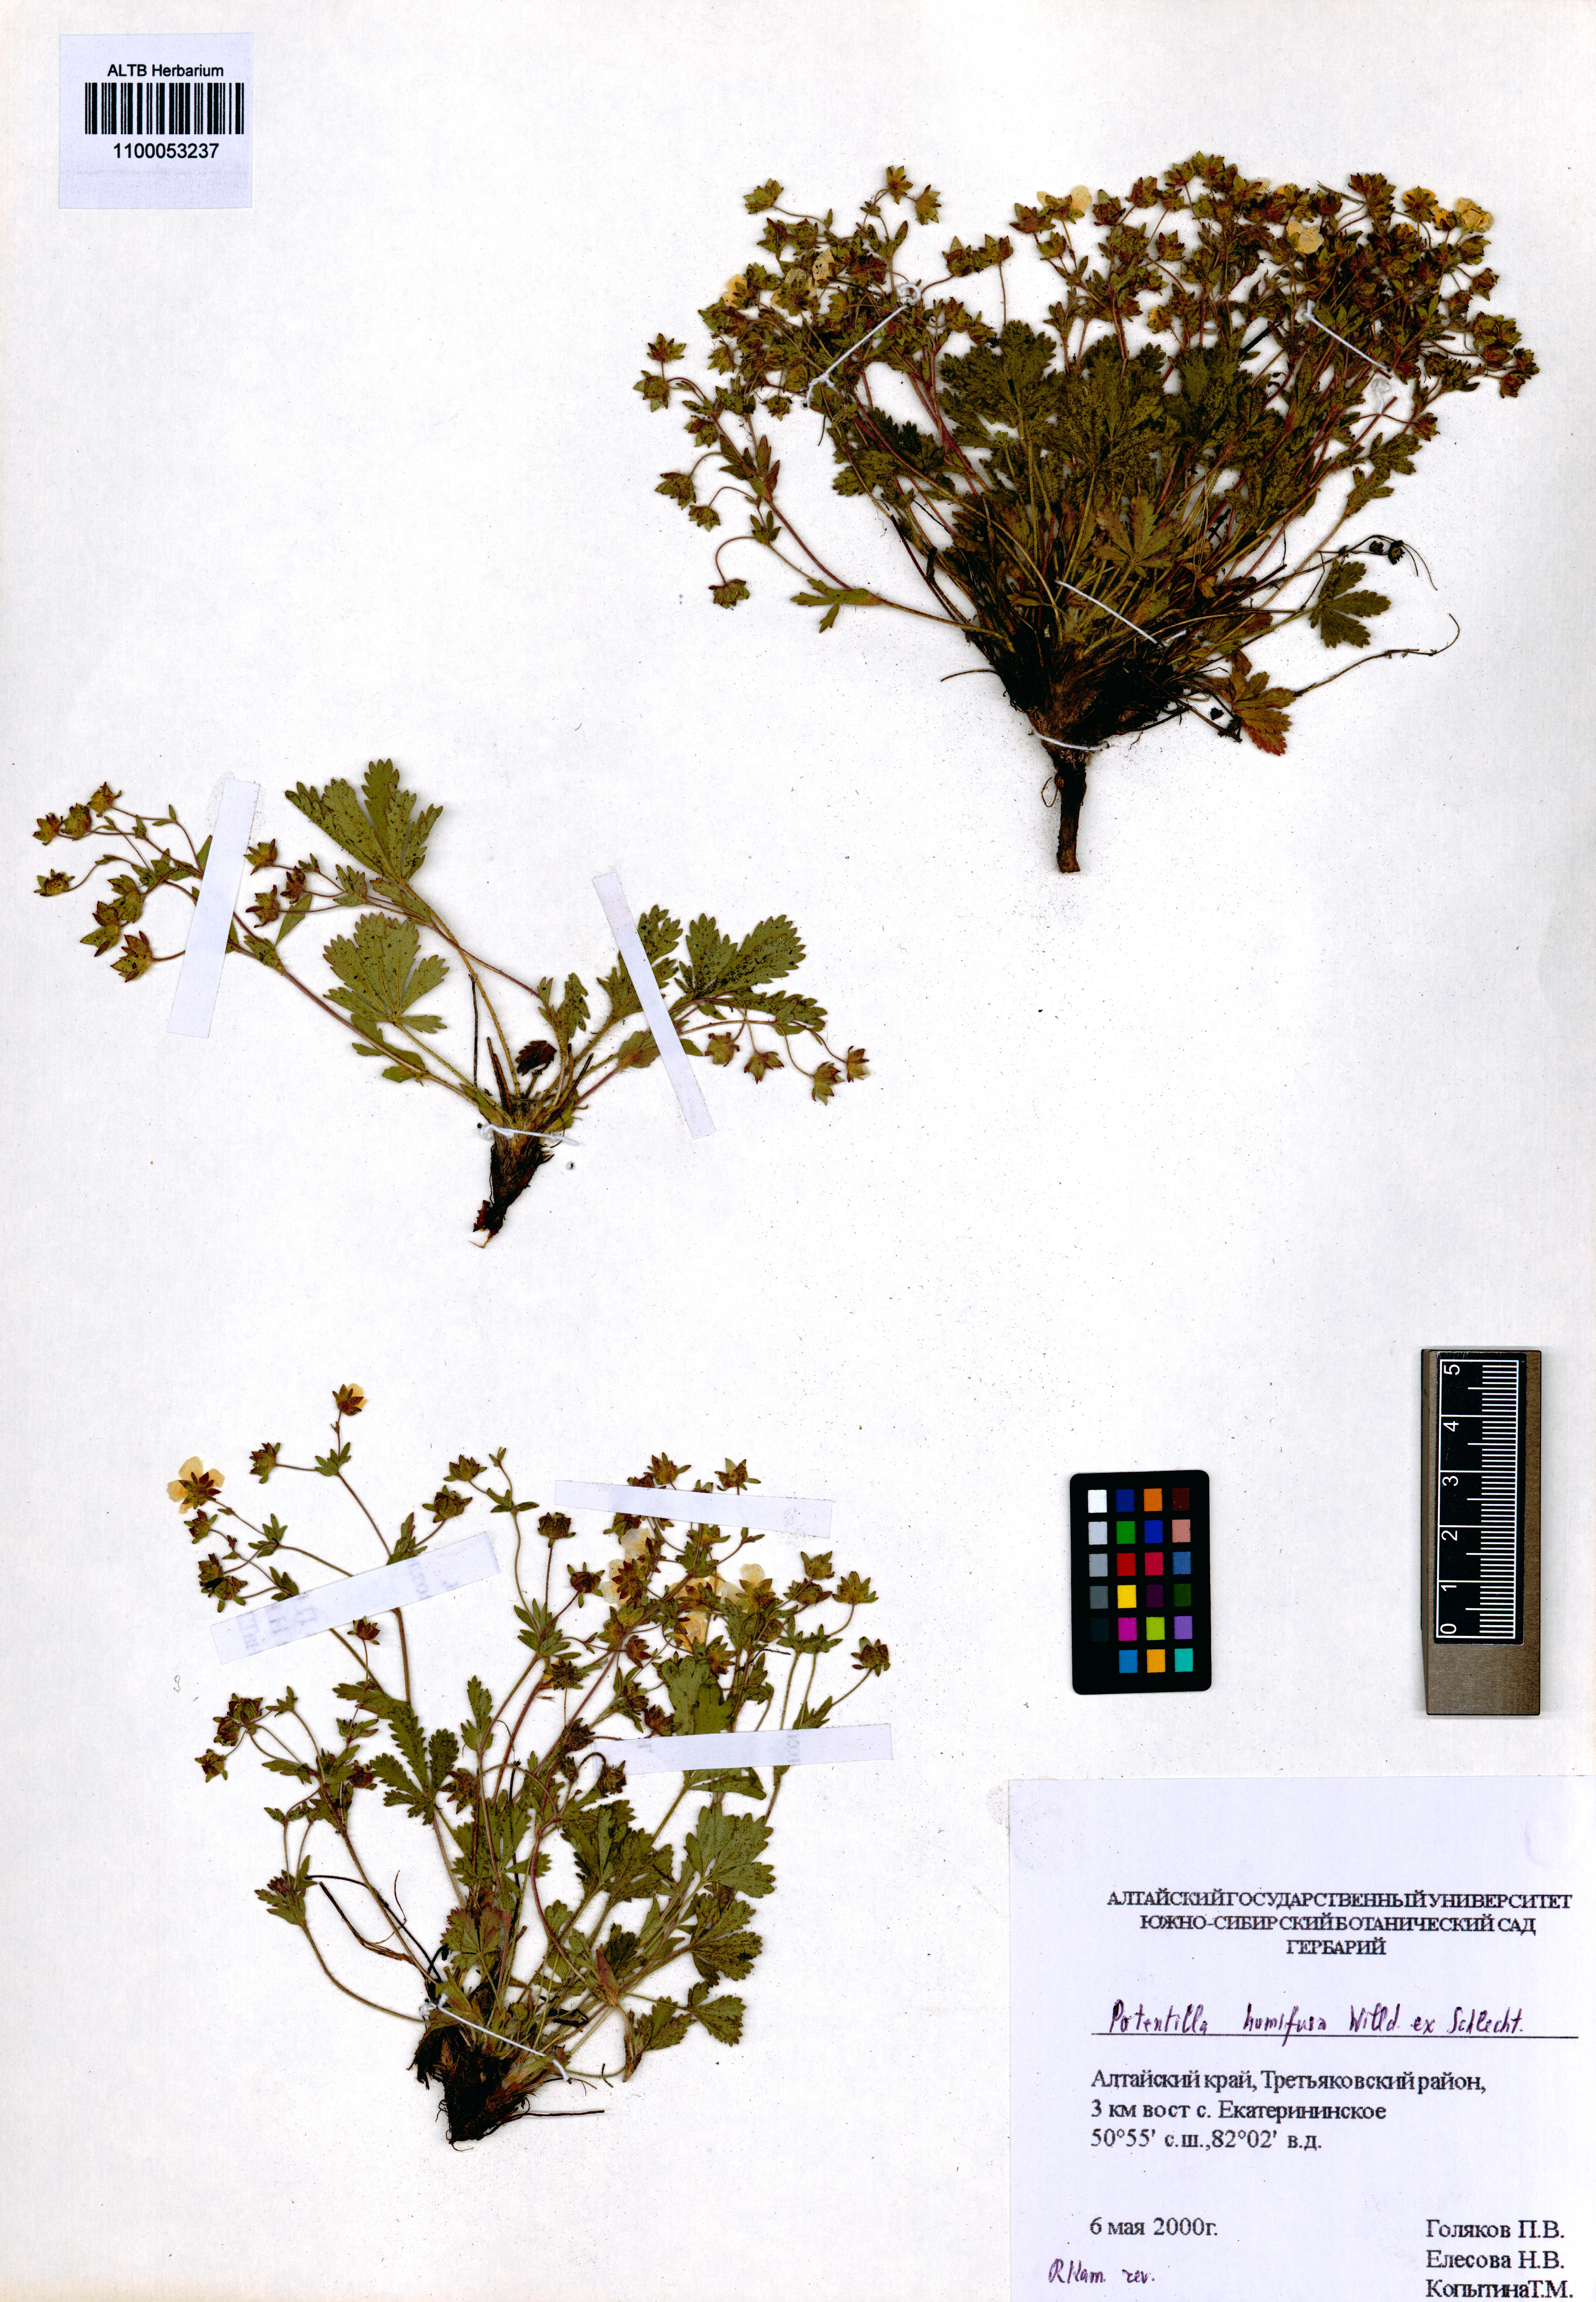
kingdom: Plantae
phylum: Tracheophyta
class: Magnoliopsida
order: Rosales
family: Rosaceae
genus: Potentilla
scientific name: Potentilla humifusa
